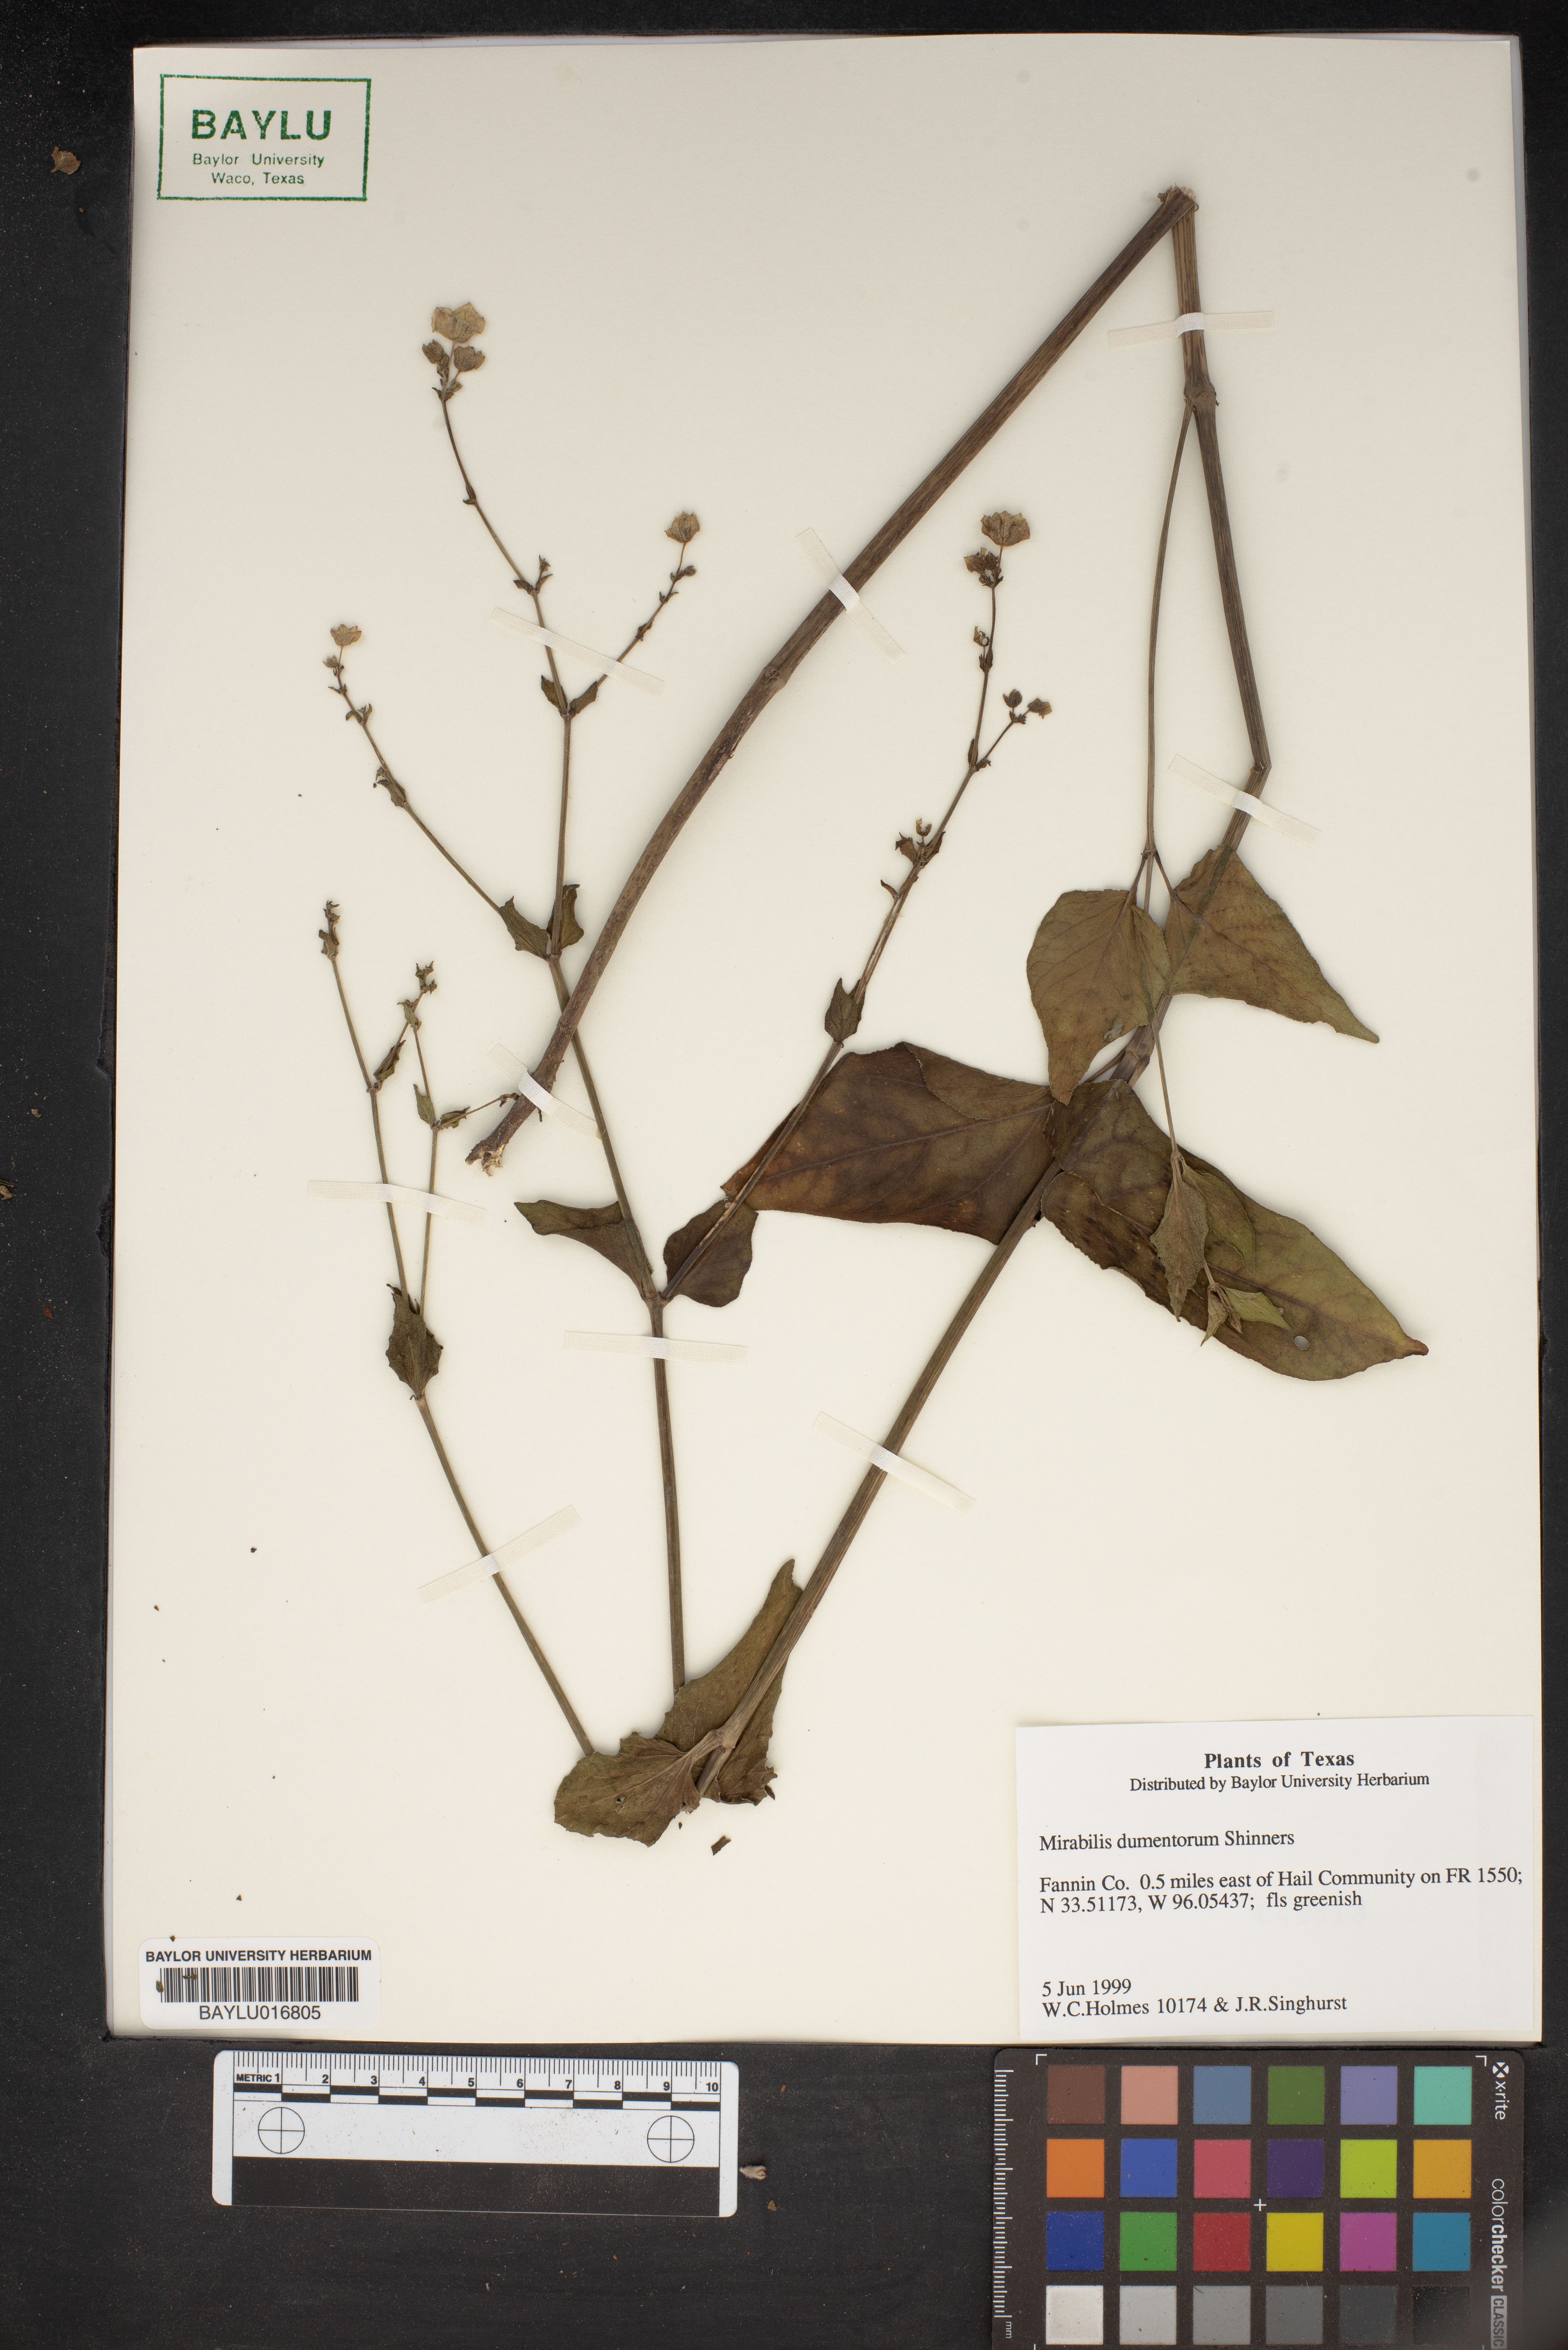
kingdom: Plantae
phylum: Tracheophyta
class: Magnoliopsida
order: Caryophyllales
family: Nyctaginaceae
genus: Mirabilis
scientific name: Mirabilis albida
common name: Hairy four-o'clock
